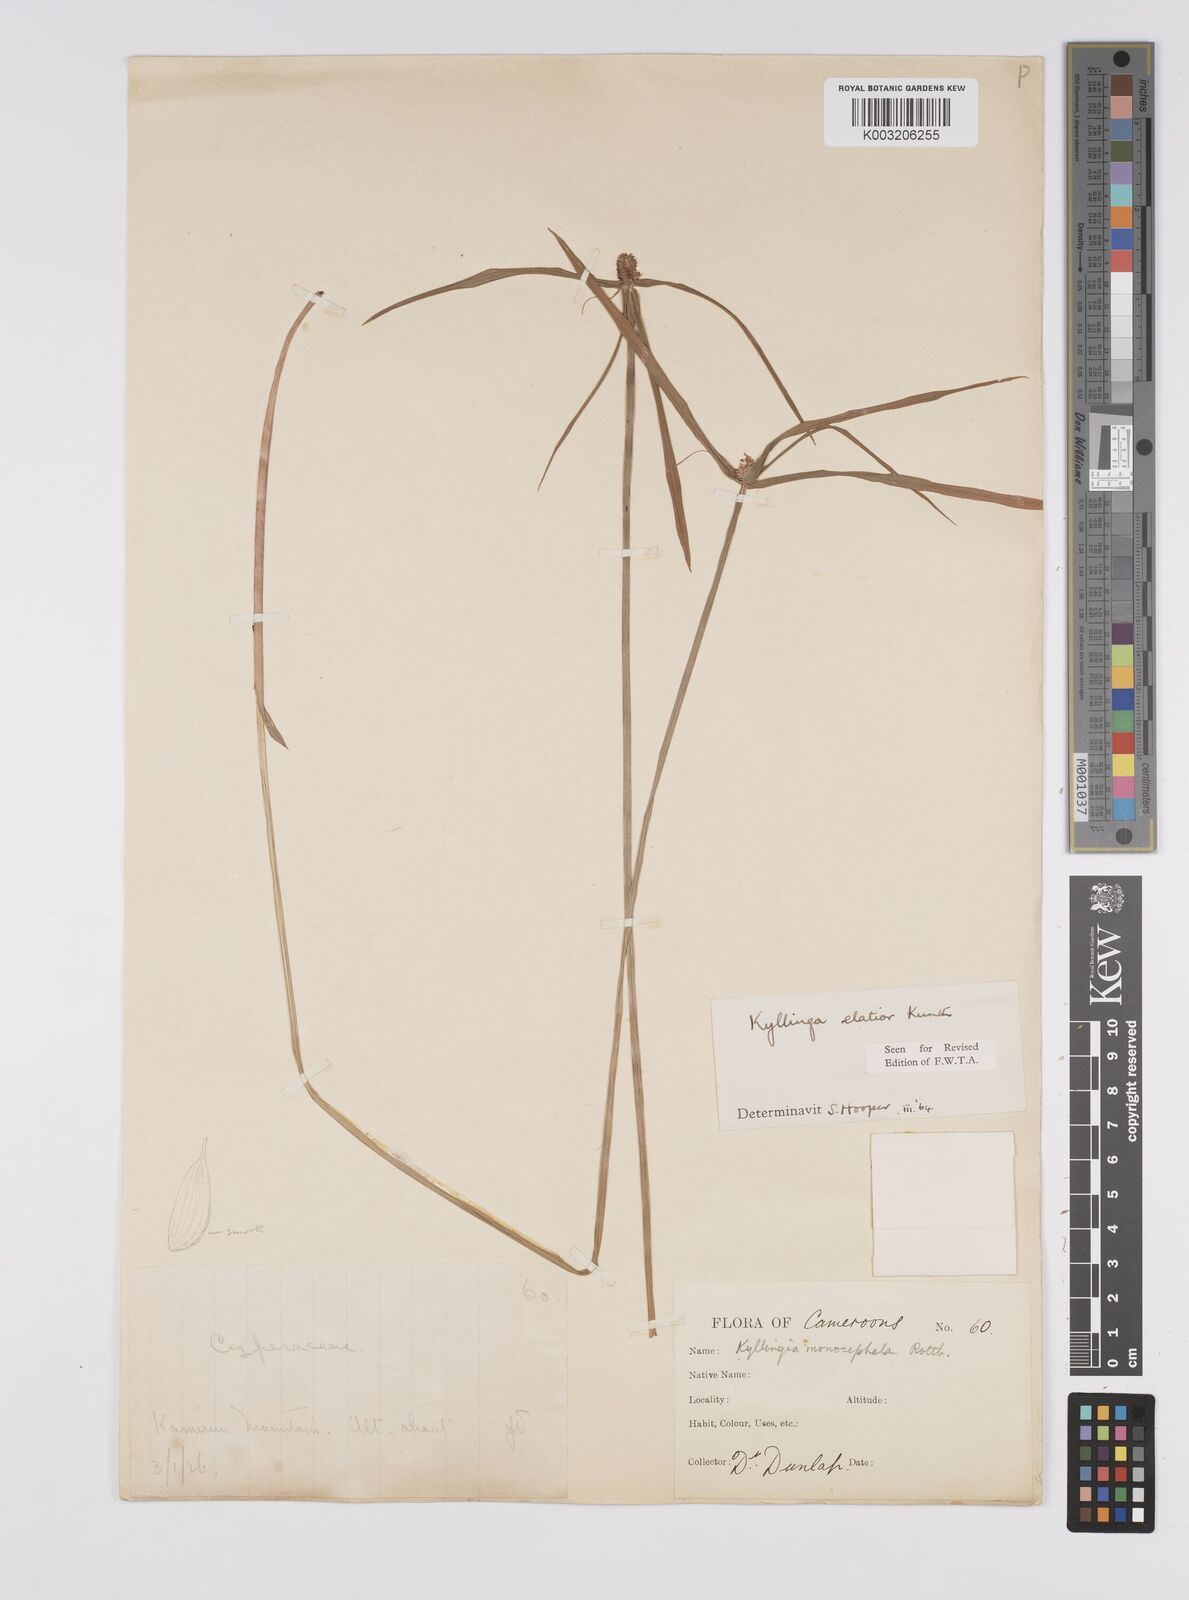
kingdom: Plantae
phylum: Tracheophyta
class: Liliopsida
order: Poales
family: Cyperaceae
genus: Cyperus
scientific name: Cyperus
